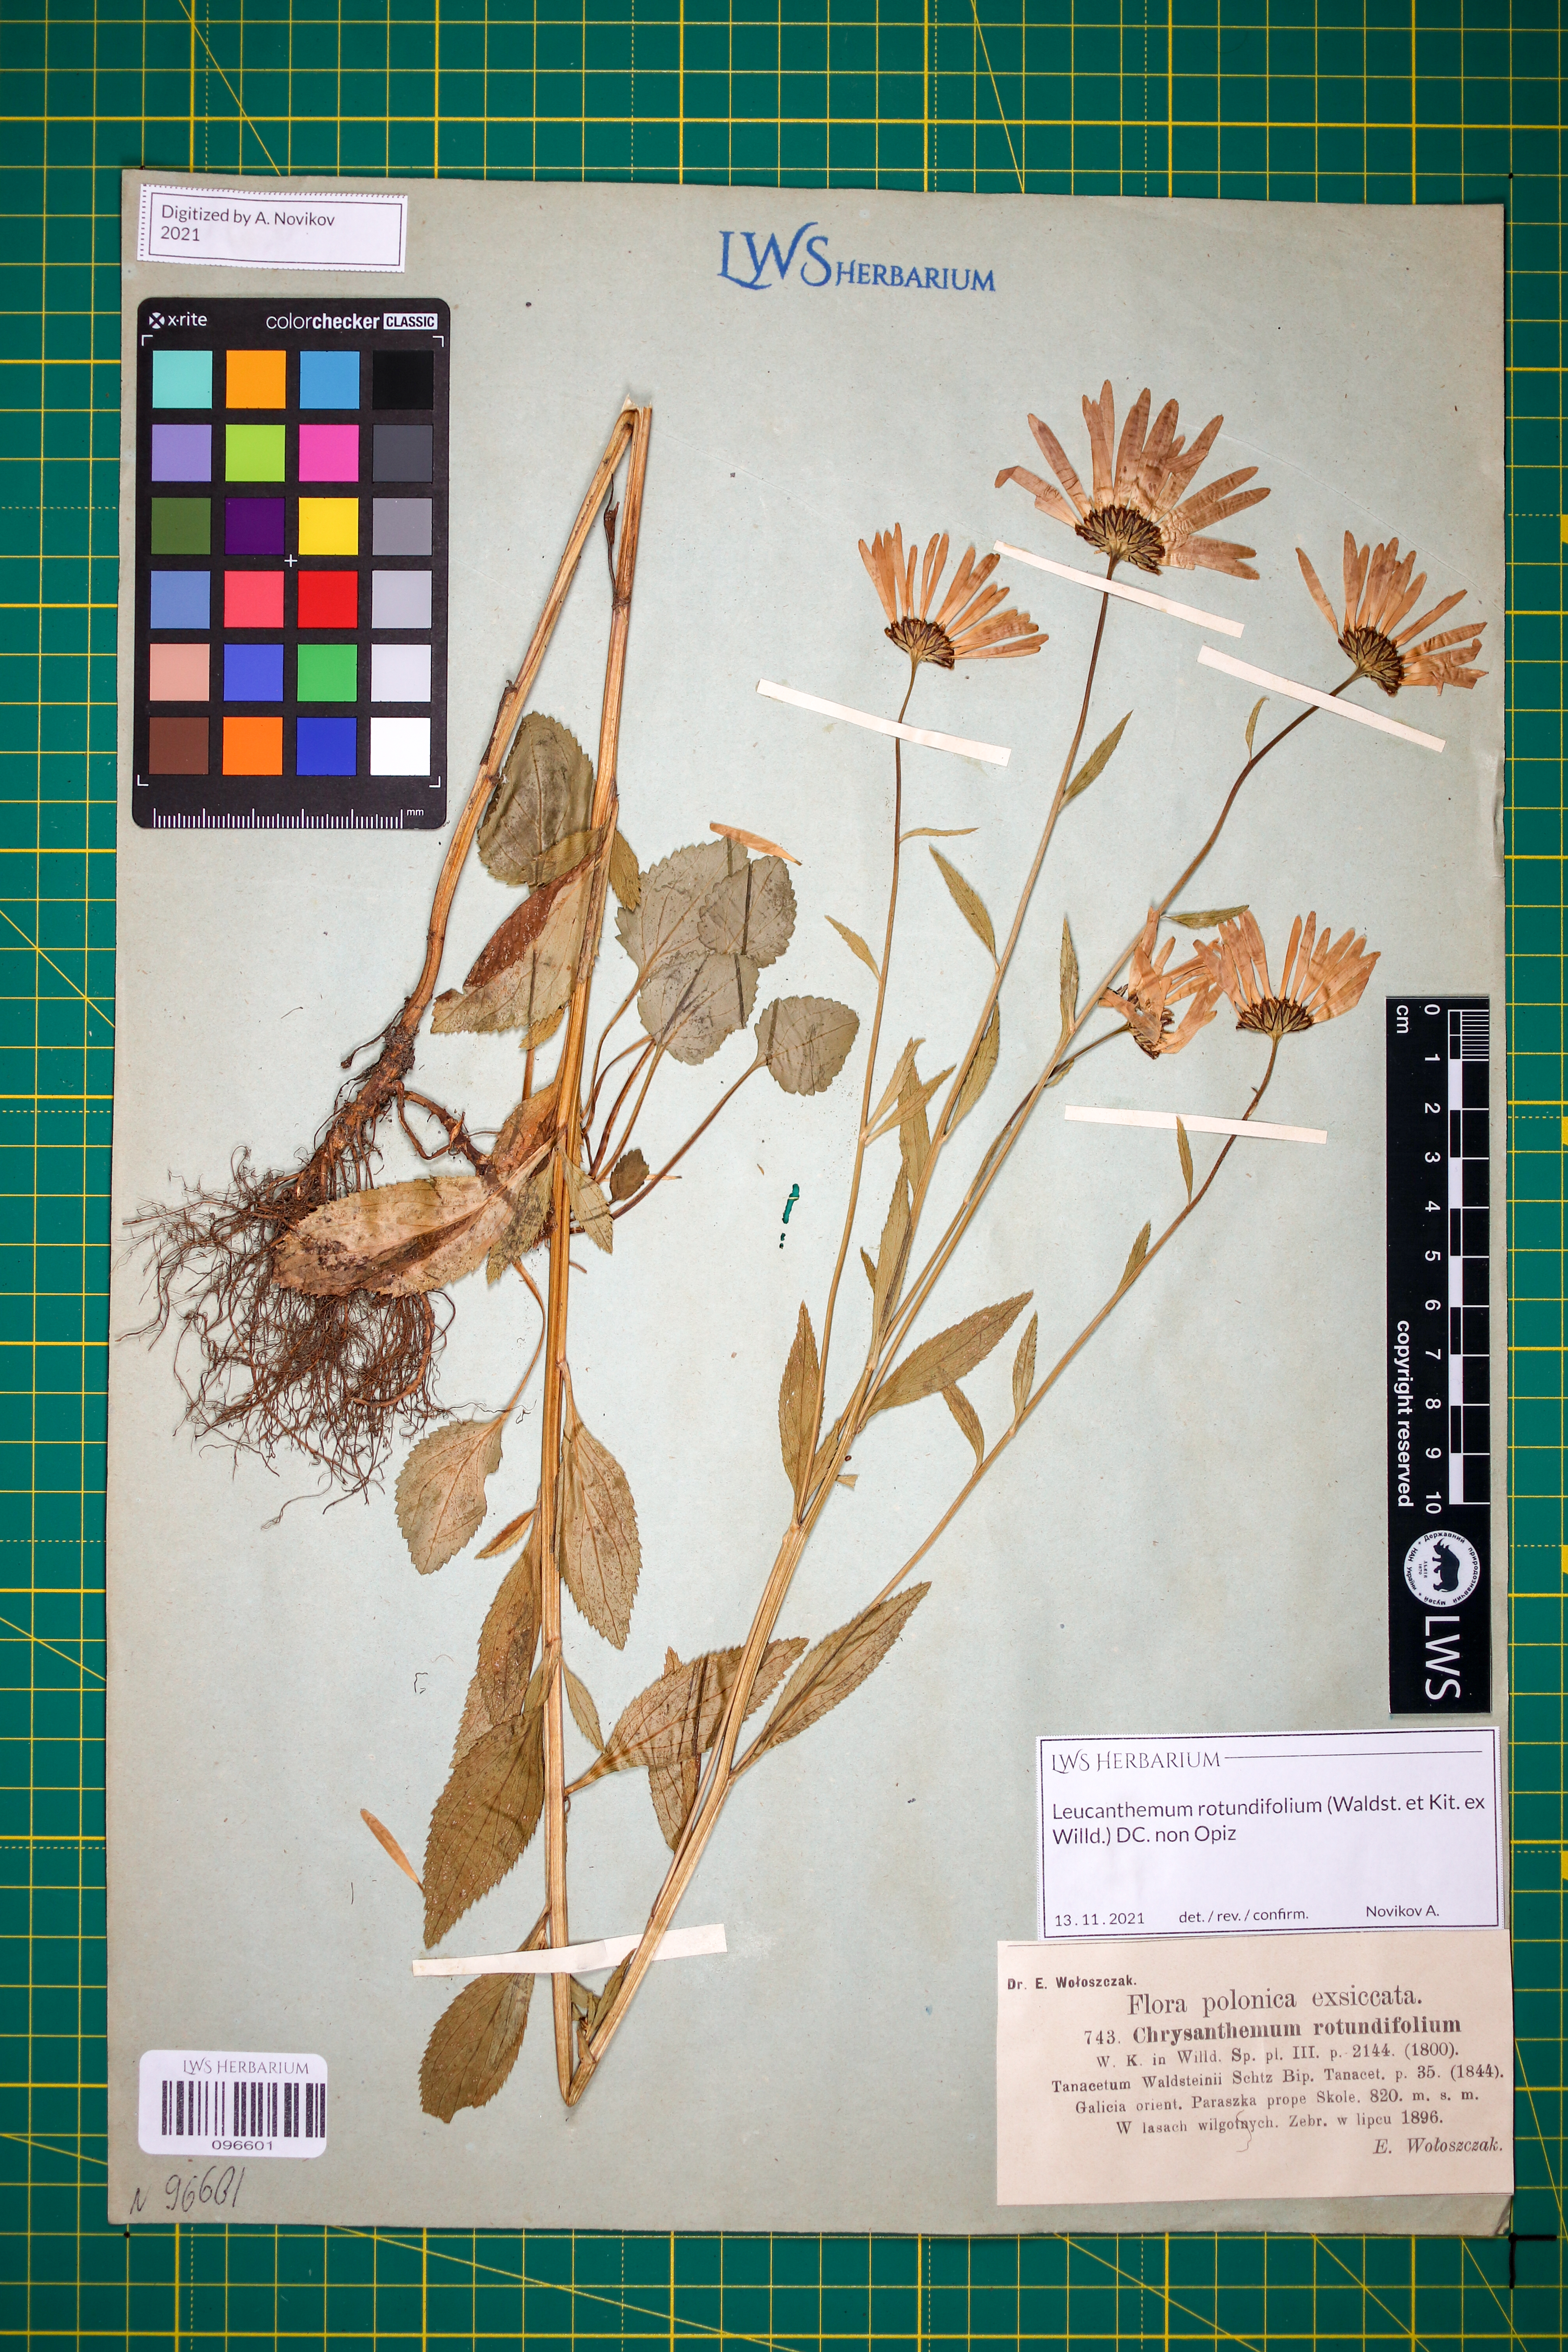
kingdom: Plantae
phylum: Tracheophyta
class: Magnoliopsida
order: Asterales
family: Asteraceae
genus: Leucanthemum
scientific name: Leucanthemum rotundifolium
